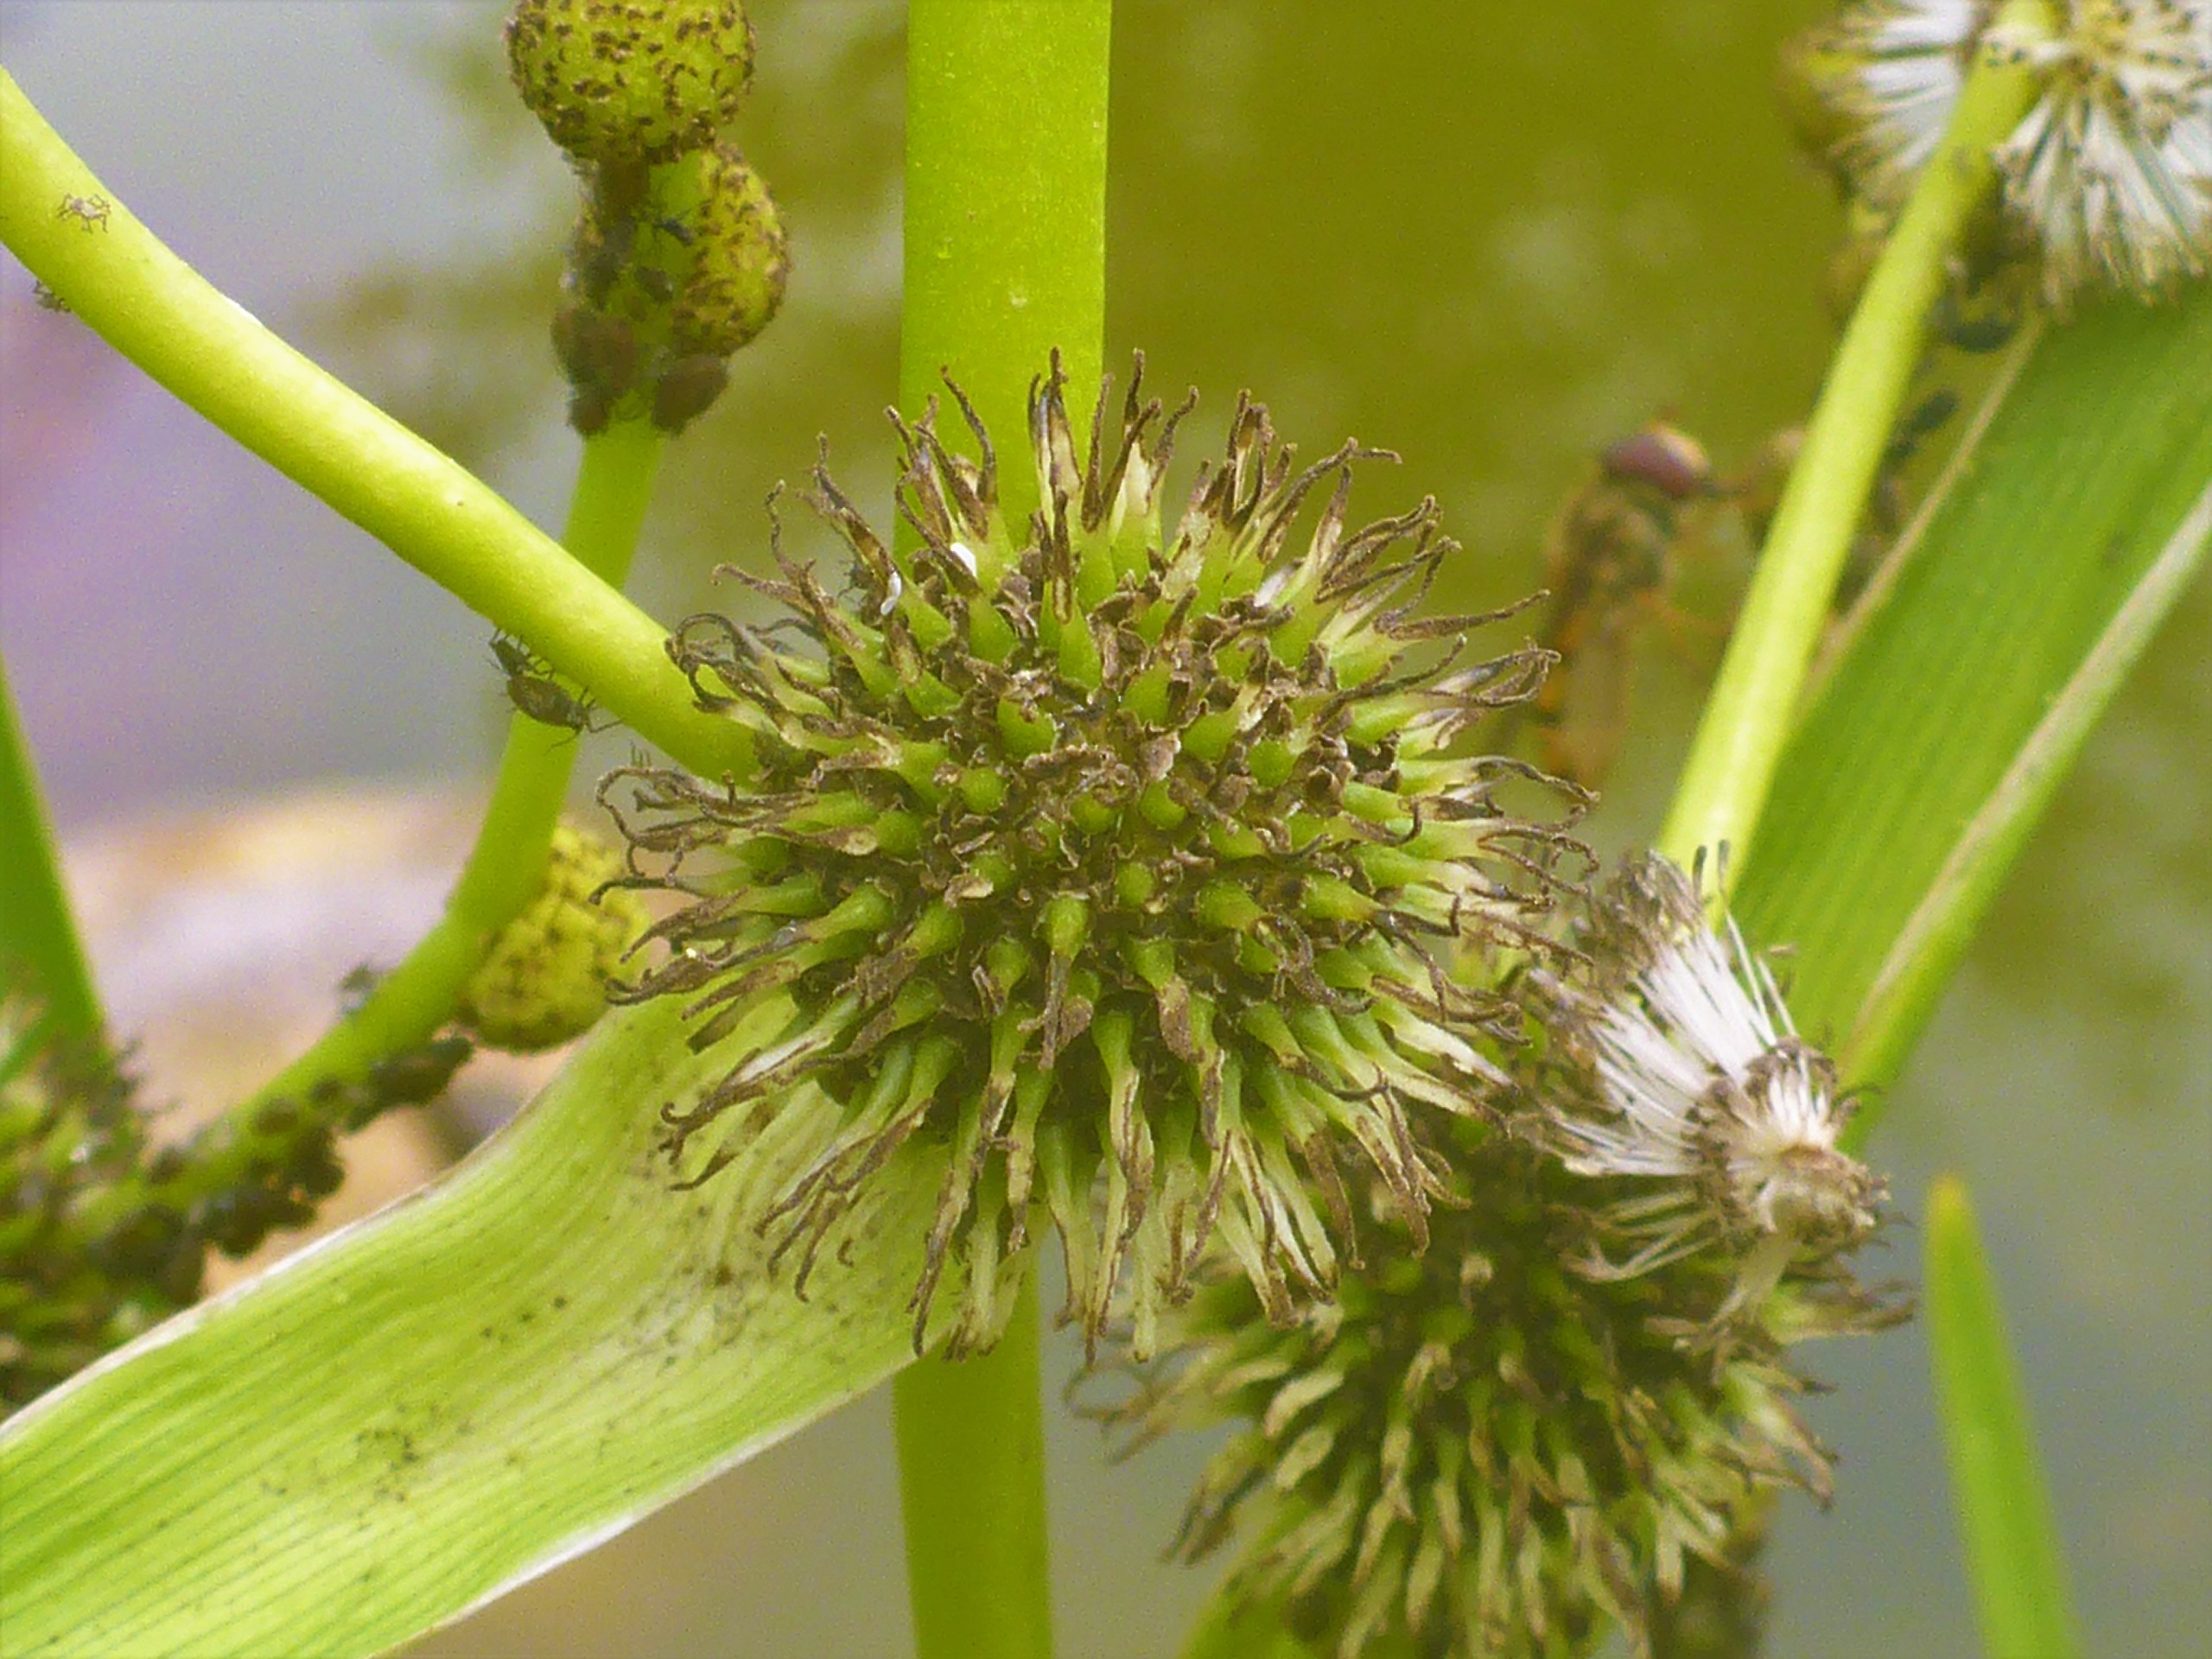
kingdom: Plantae
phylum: Tracheophyta
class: Liliopsida
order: Poales
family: Typhaceae
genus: Sparganium
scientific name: Sparganium erectum
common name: Grenet pindsvineknop
